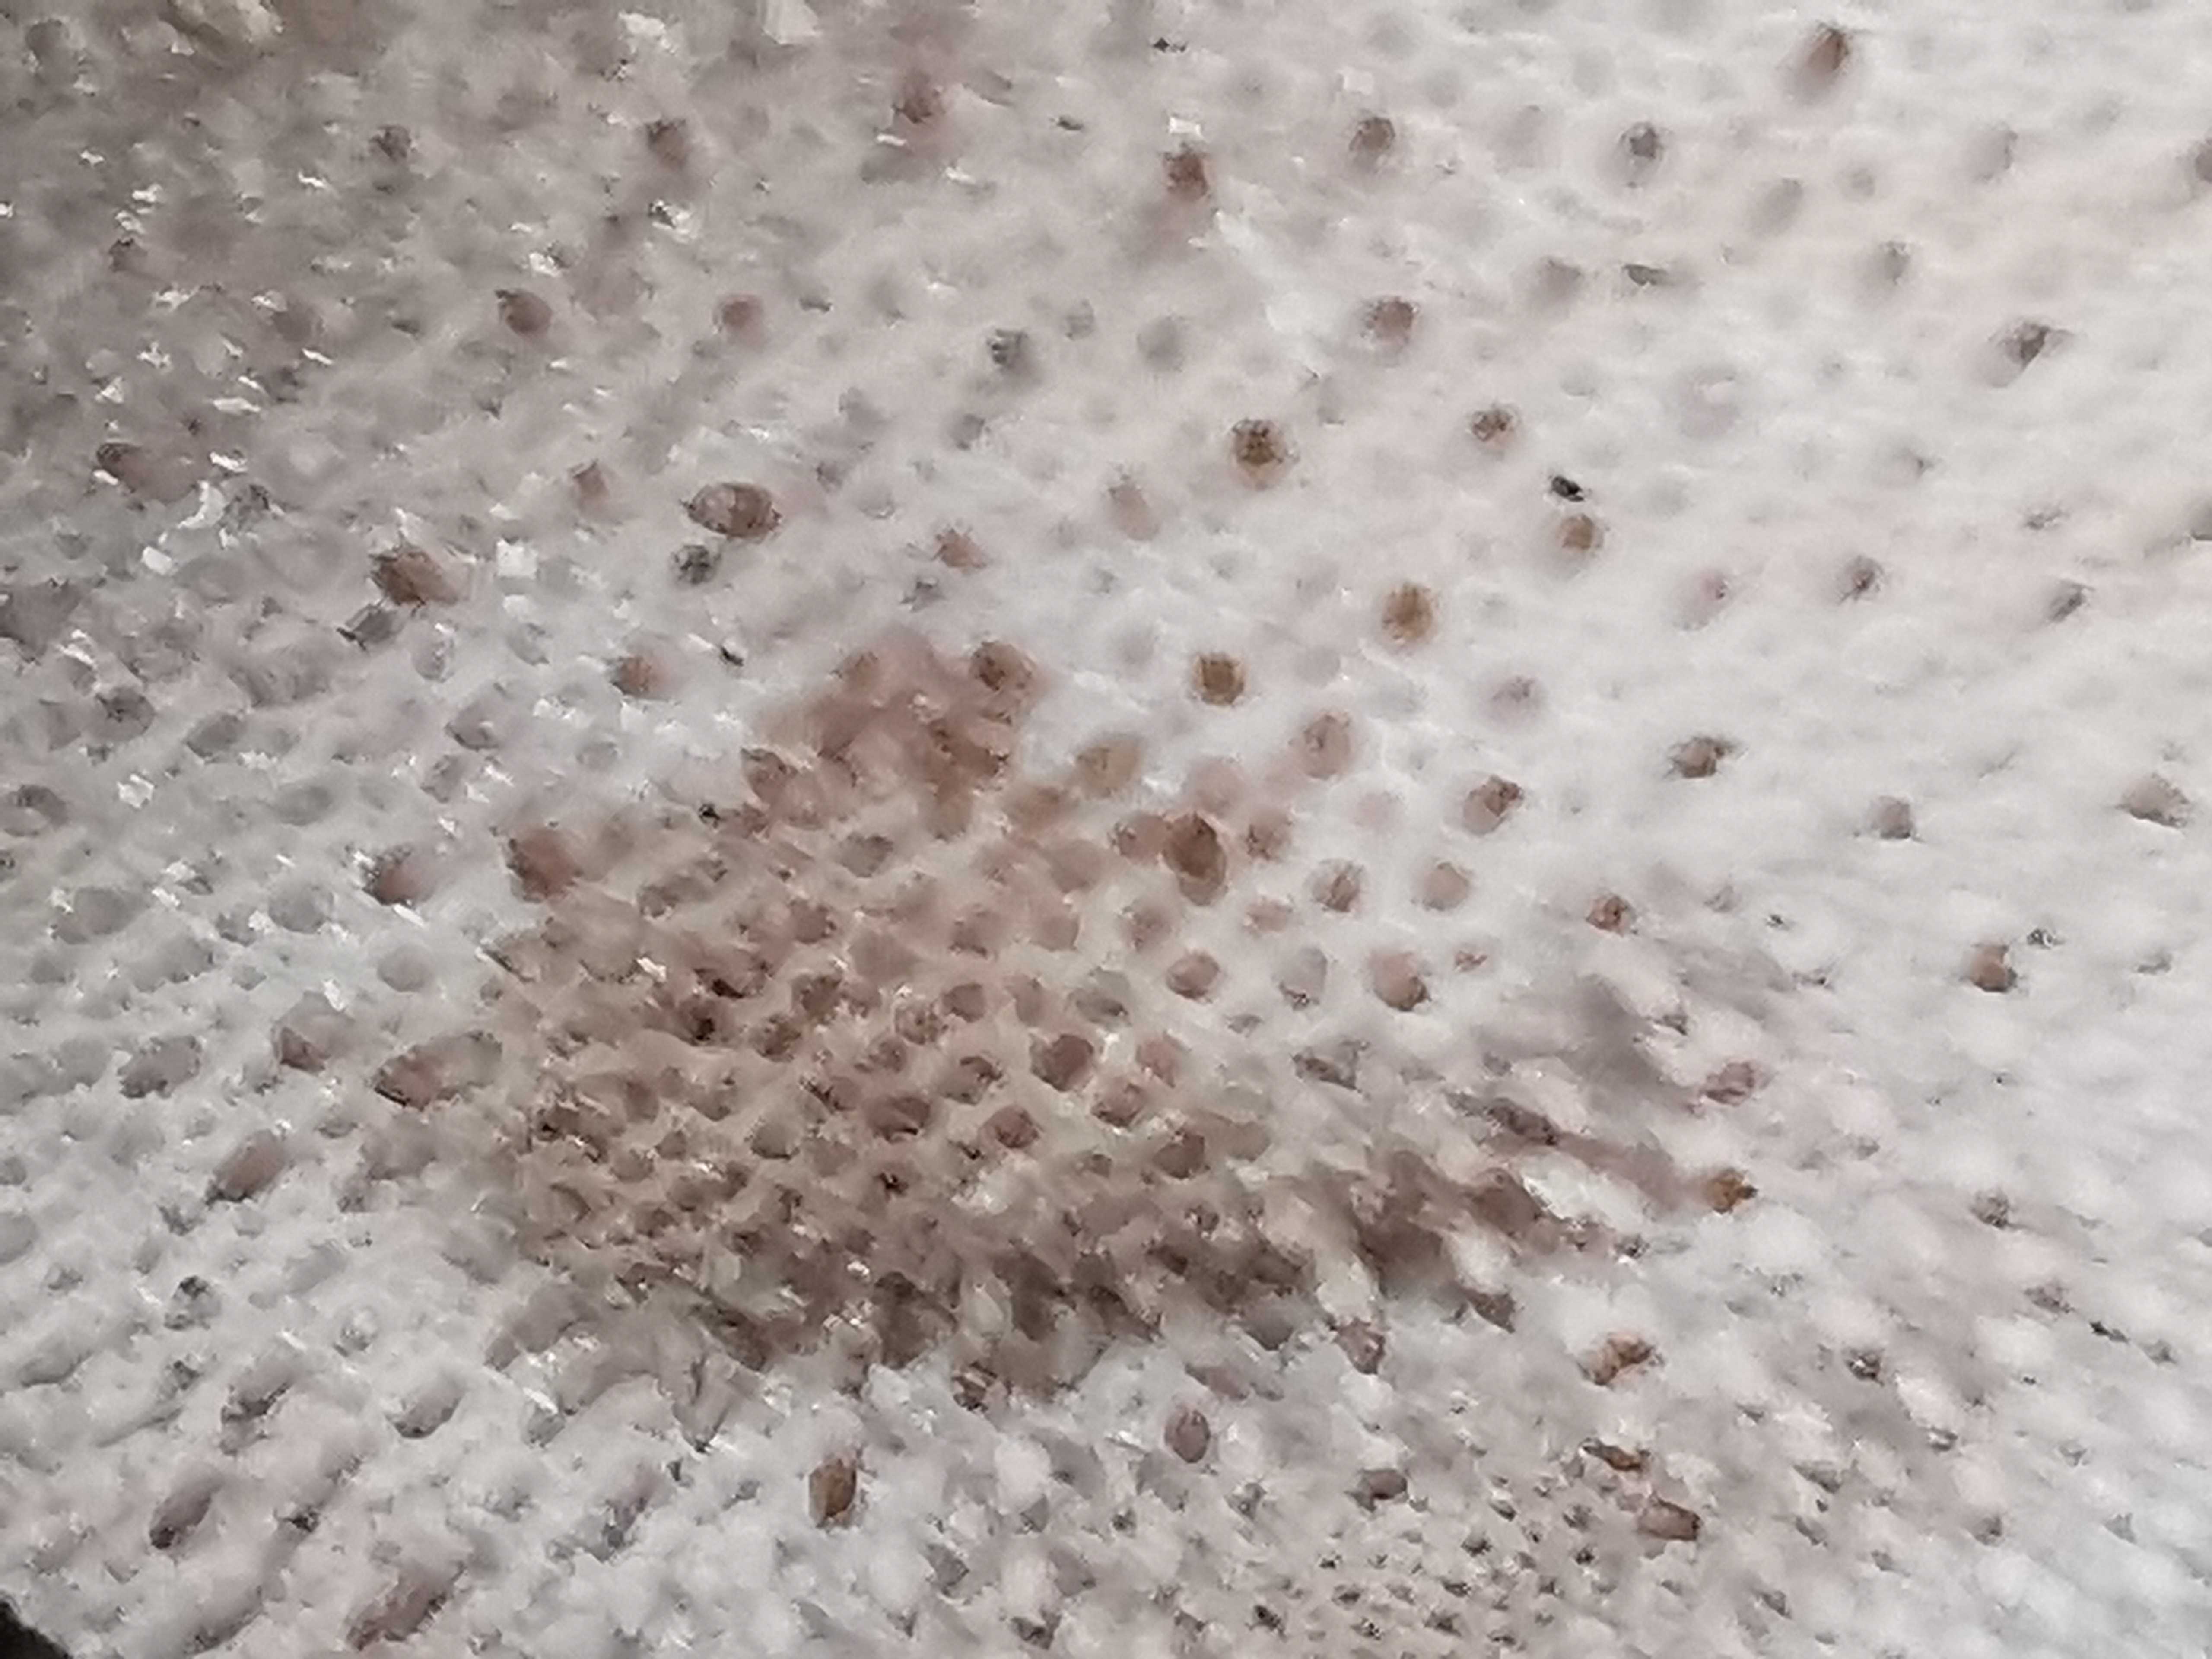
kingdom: Fungi
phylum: Basidiomycota
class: Agaricomycetes
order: Agaricales
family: Lycoperdaceae
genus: Lycoperdon
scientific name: Lycoperdon perlatum
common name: krystal-støvbold
